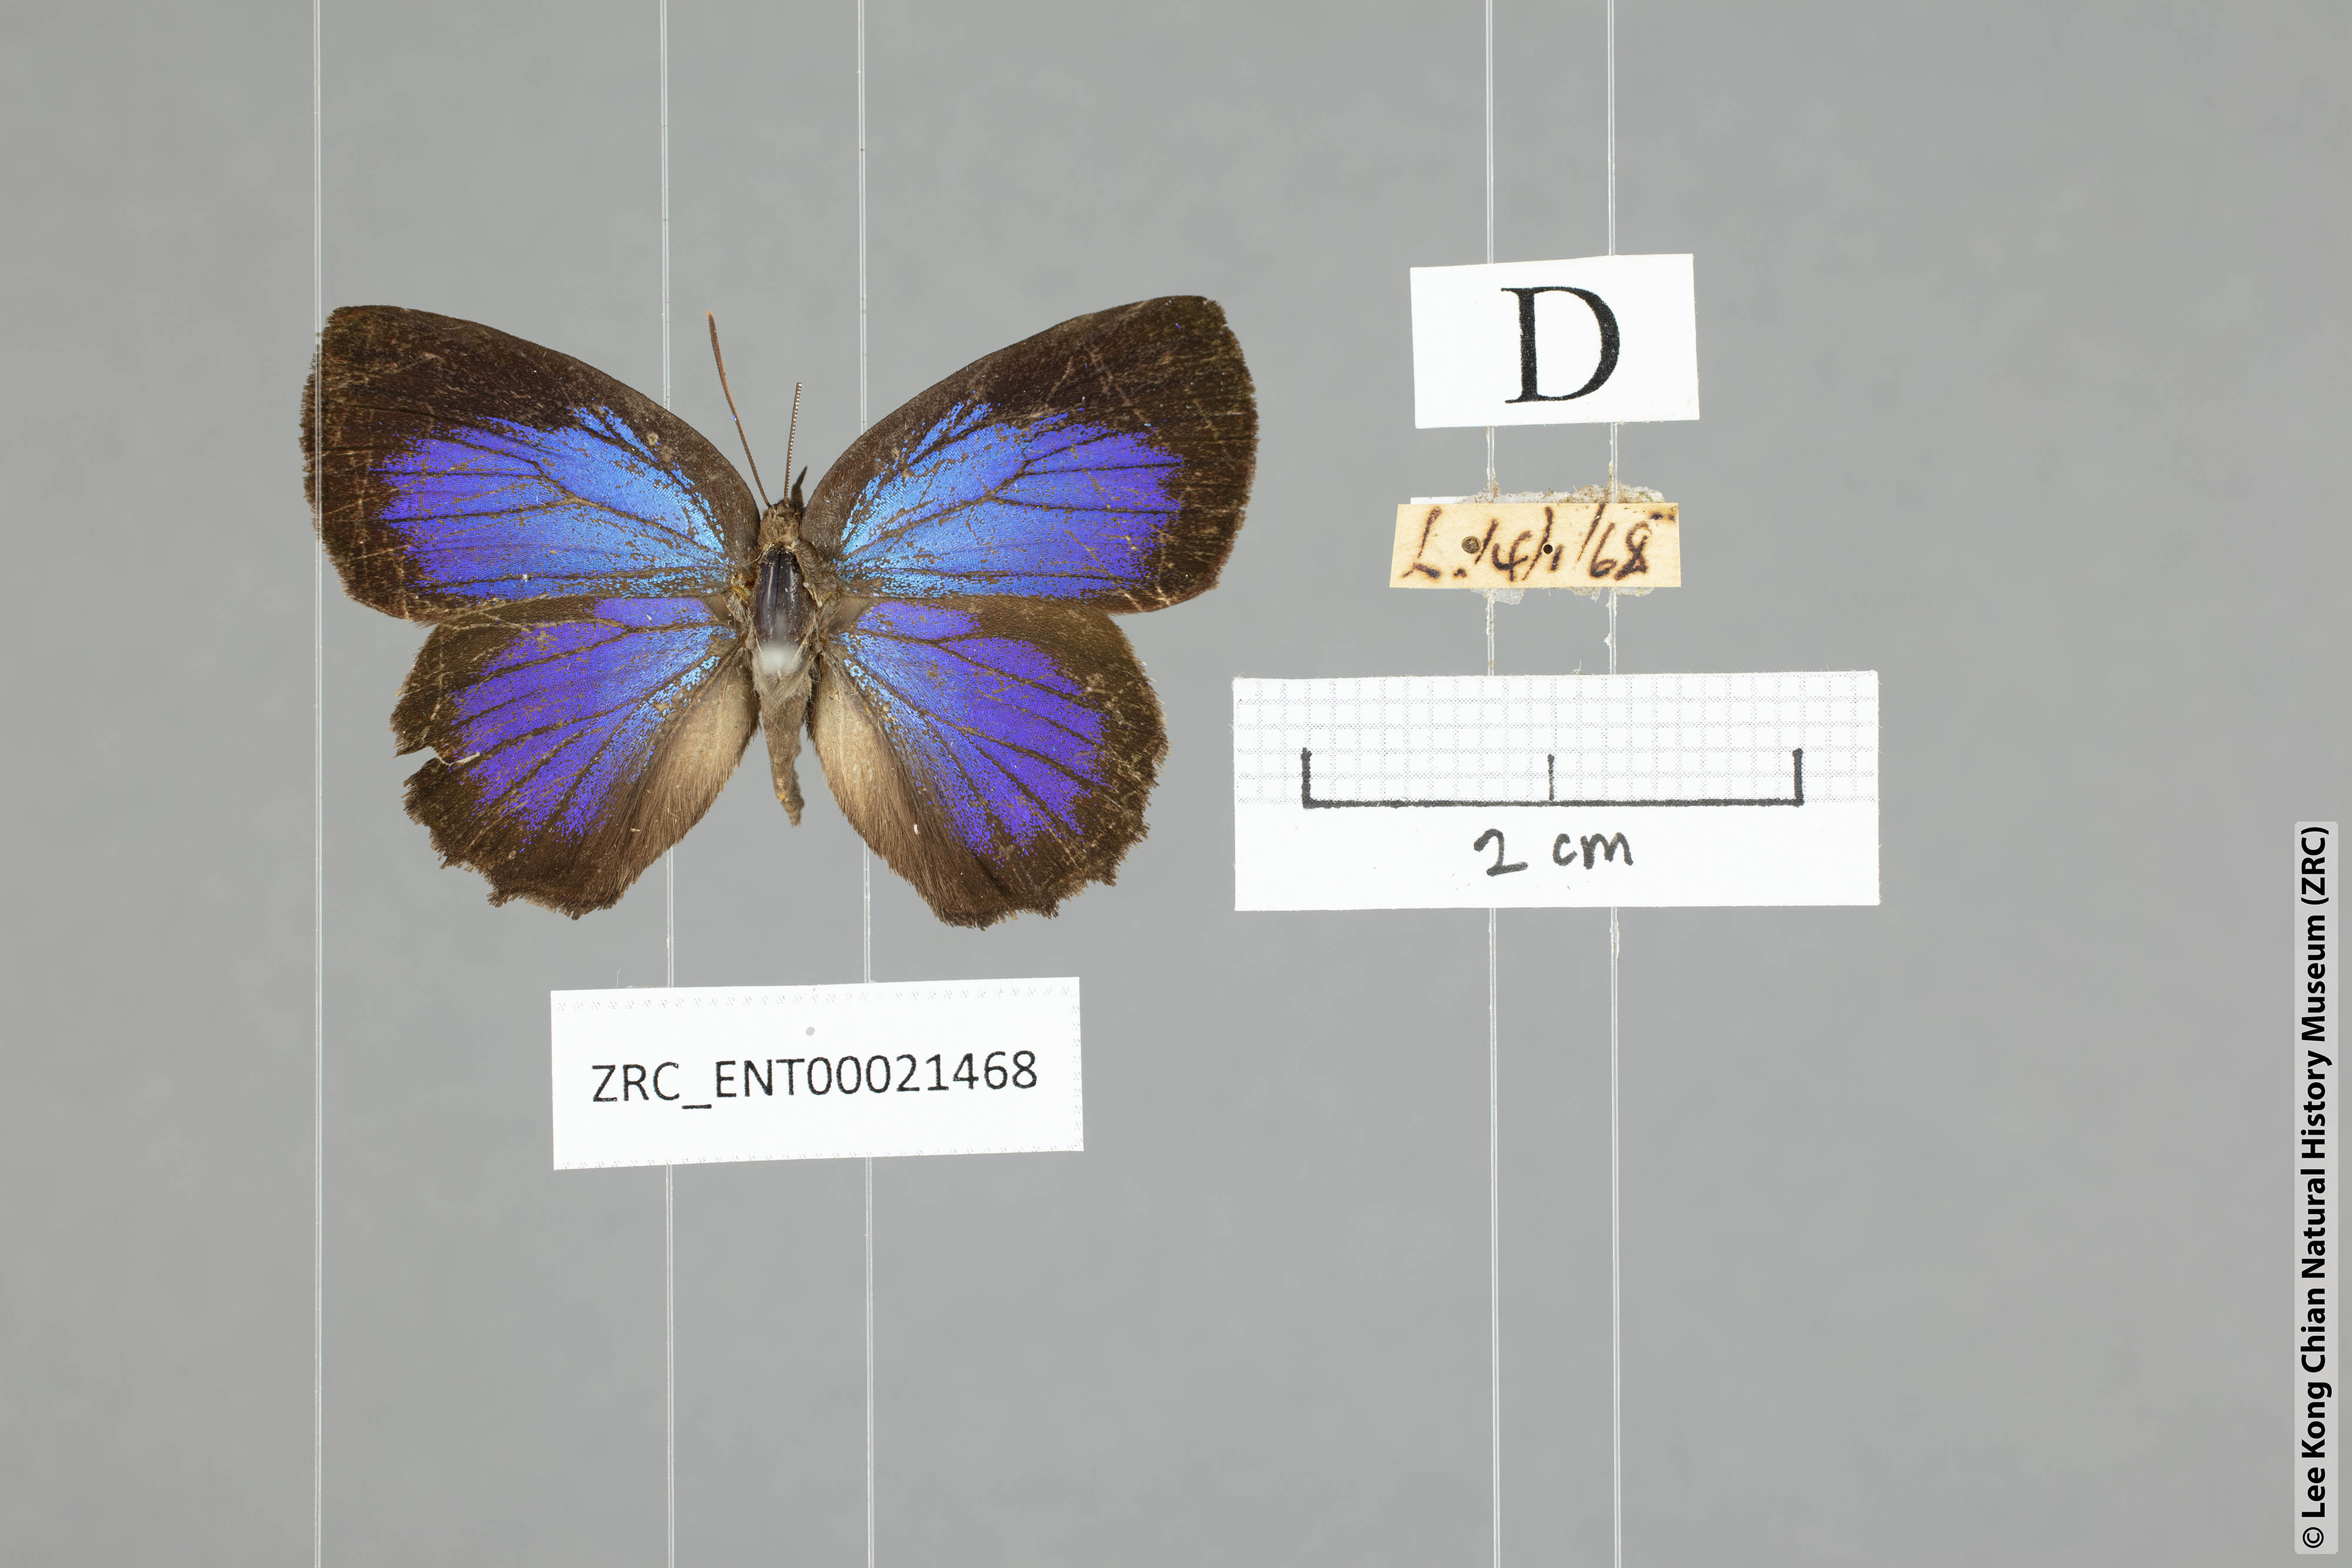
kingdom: Animalia
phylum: Arthropoda
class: Insecta
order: Lepidoptera
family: Lycaenidae
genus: Flos
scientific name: Flos
